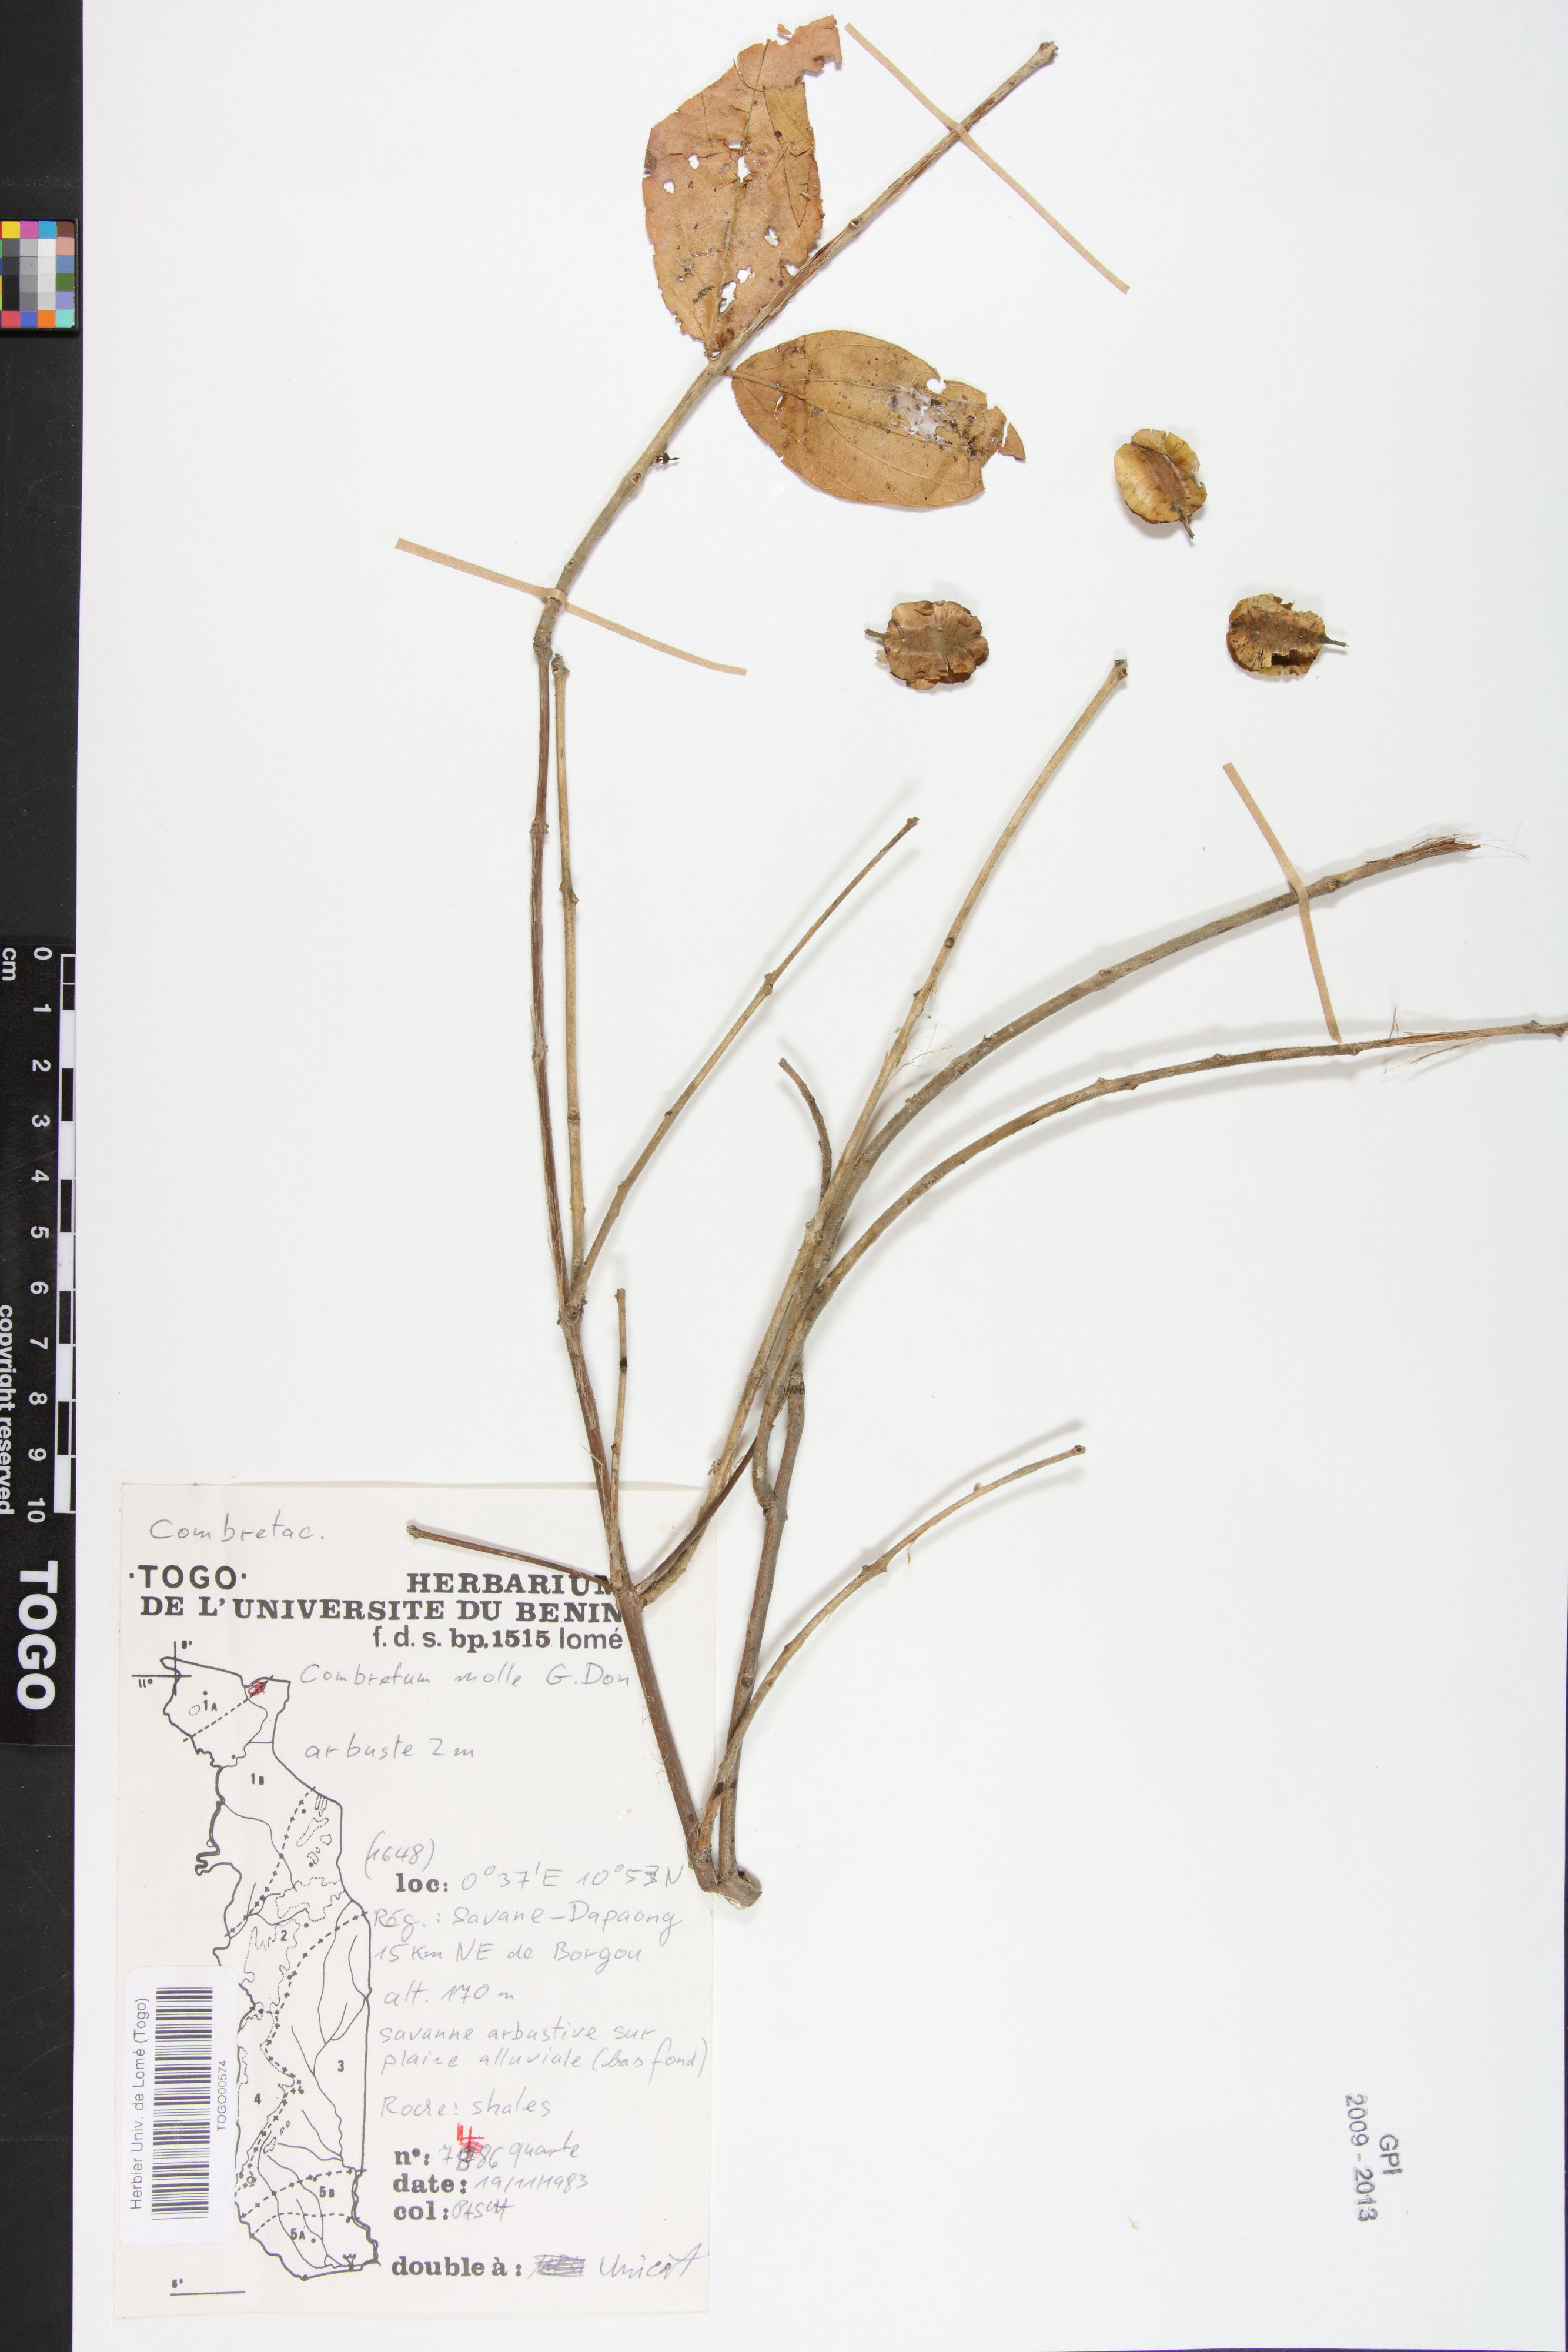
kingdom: Plantae
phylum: Tracheophyta
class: Magnoliopsida
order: Myrtales
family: Combretaceae
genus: Combretum
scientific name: Combretum molle
